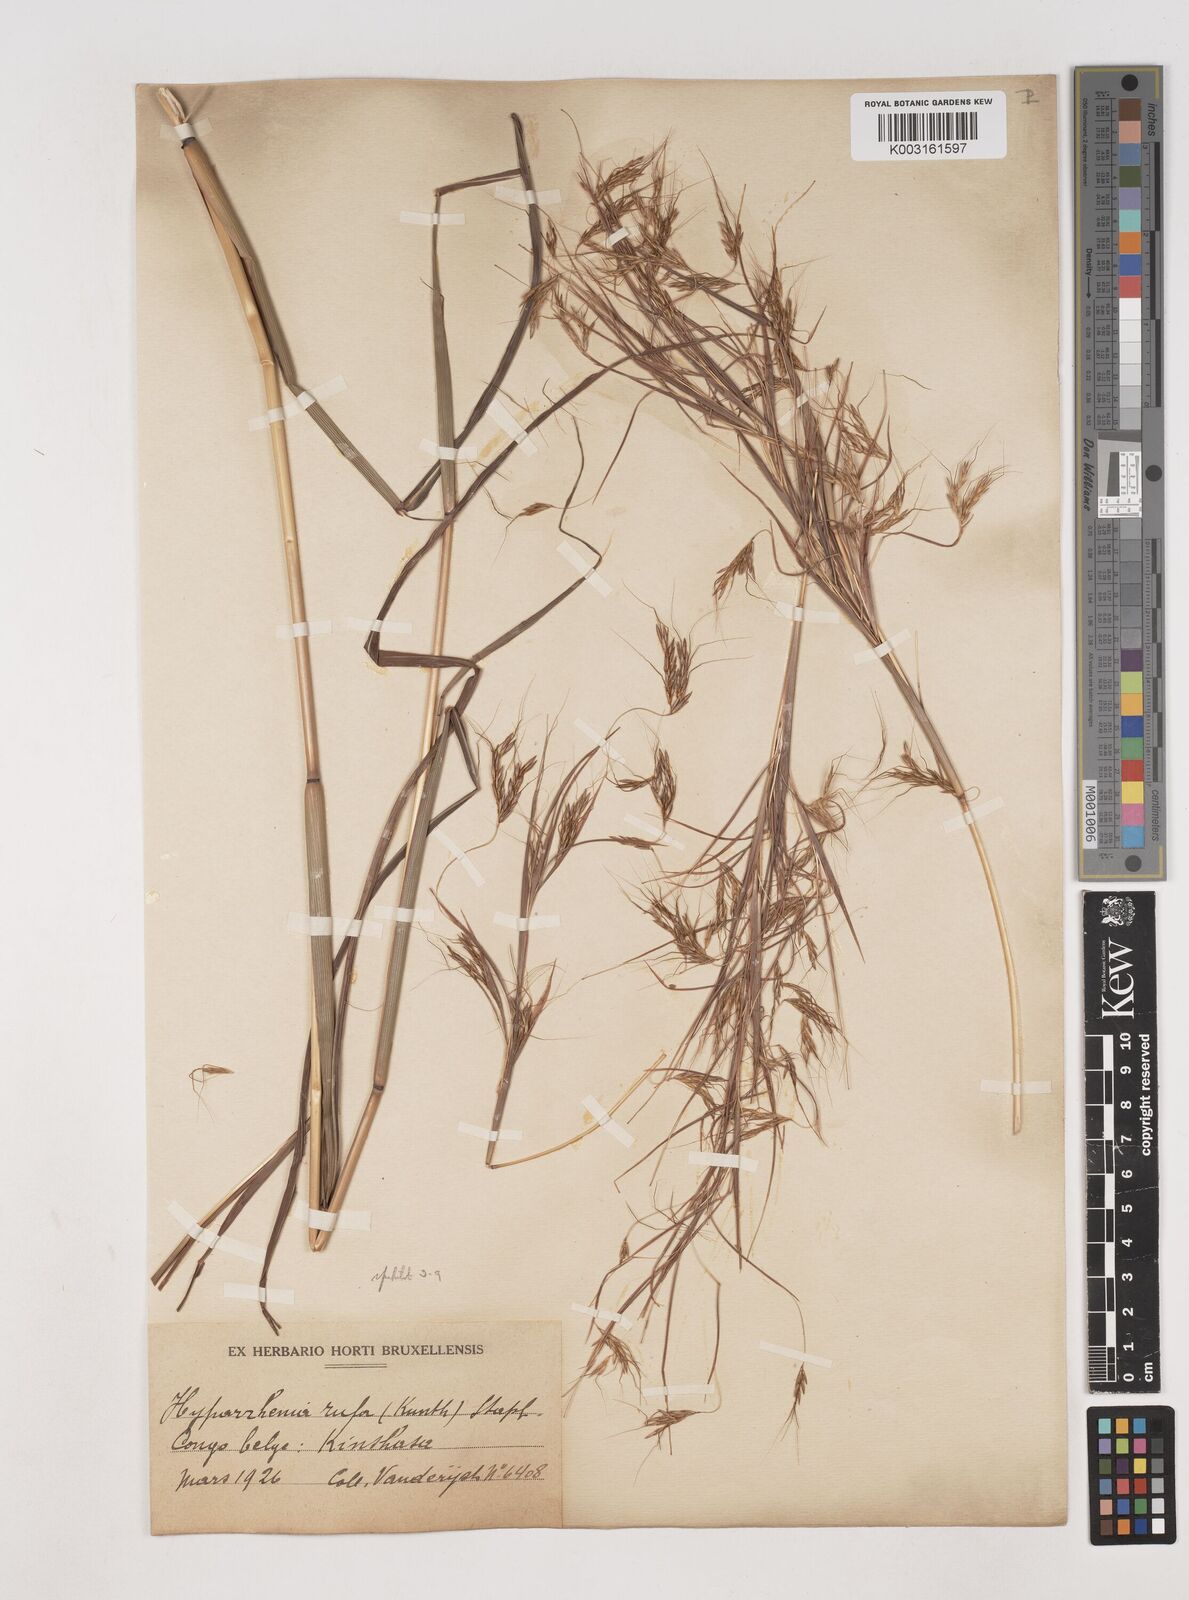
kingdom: Plantae
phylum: Tracheophyta
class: Liliopsida
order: Poales
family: Poaceae
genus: Hyparrhenia
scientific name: Hyparrhenia rufa
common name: Jaraguagrass
